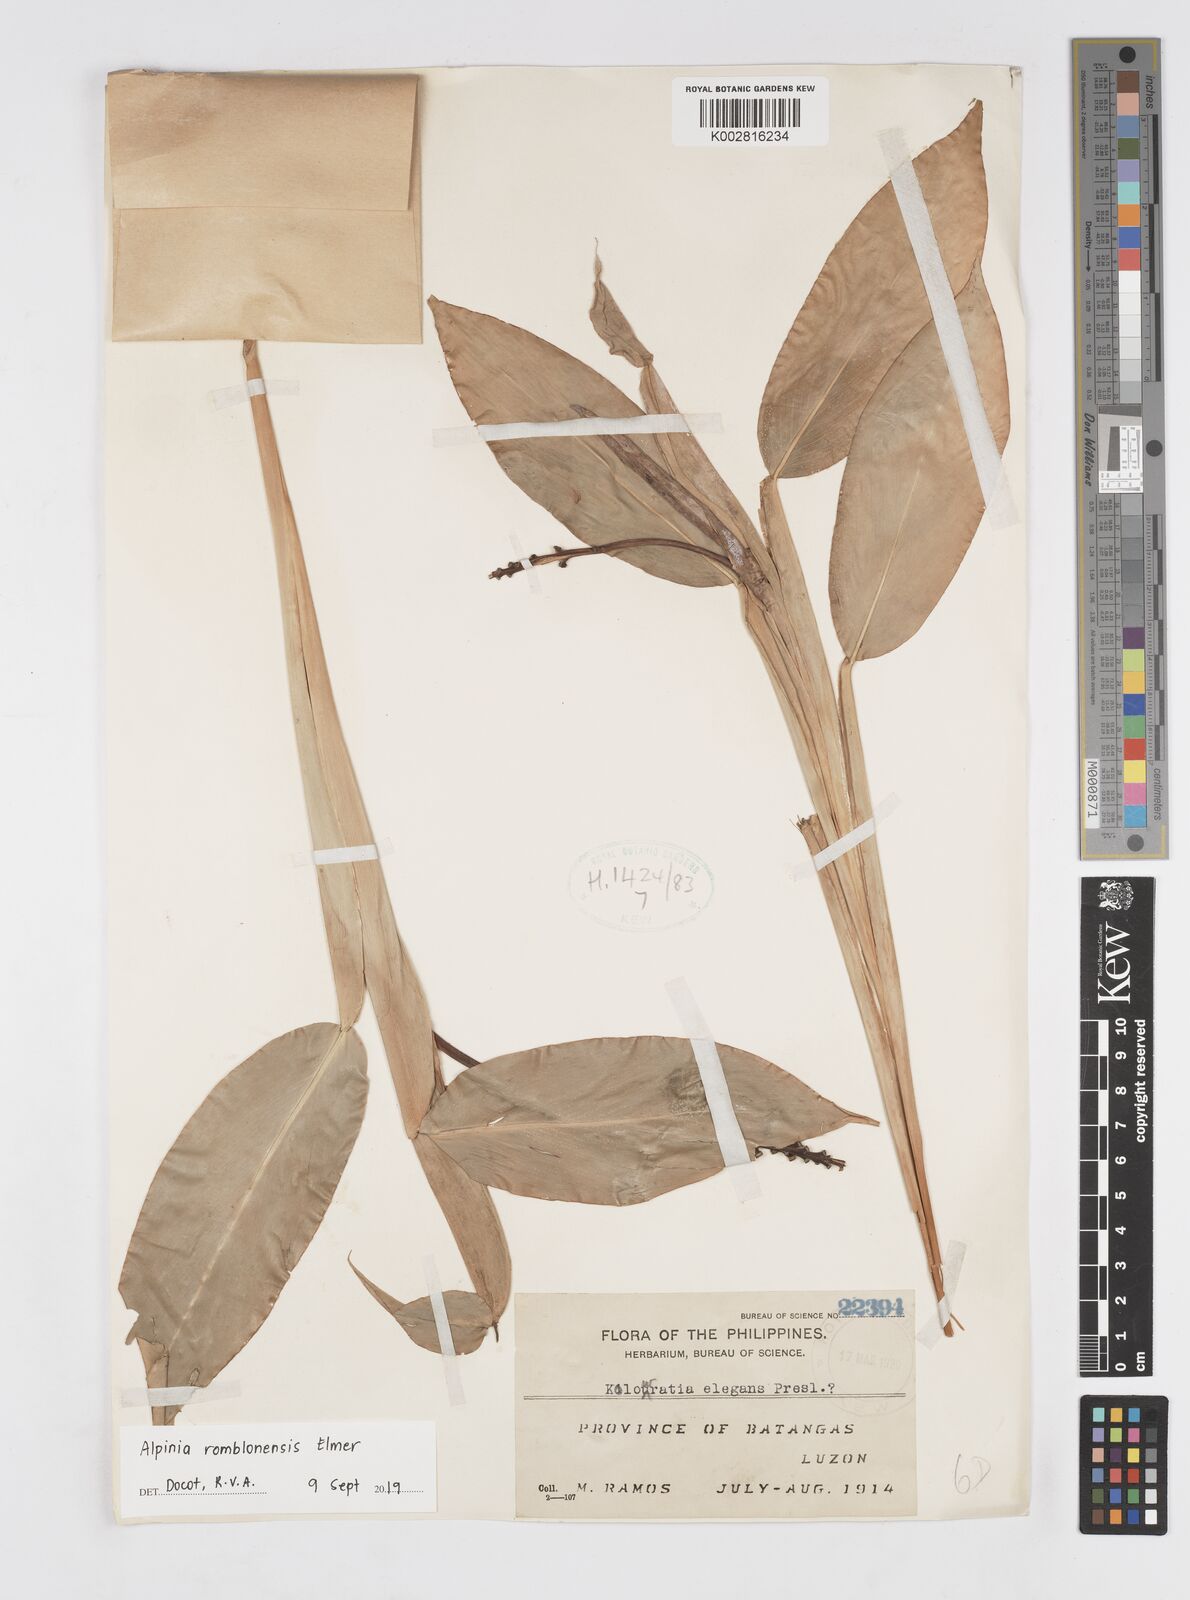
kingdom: Plantae
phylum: Tracheophyta
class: Liliopsida
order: Zingiberales
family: Zingiberaceae
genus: Alpinia
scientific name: Alpinia romblonensis
